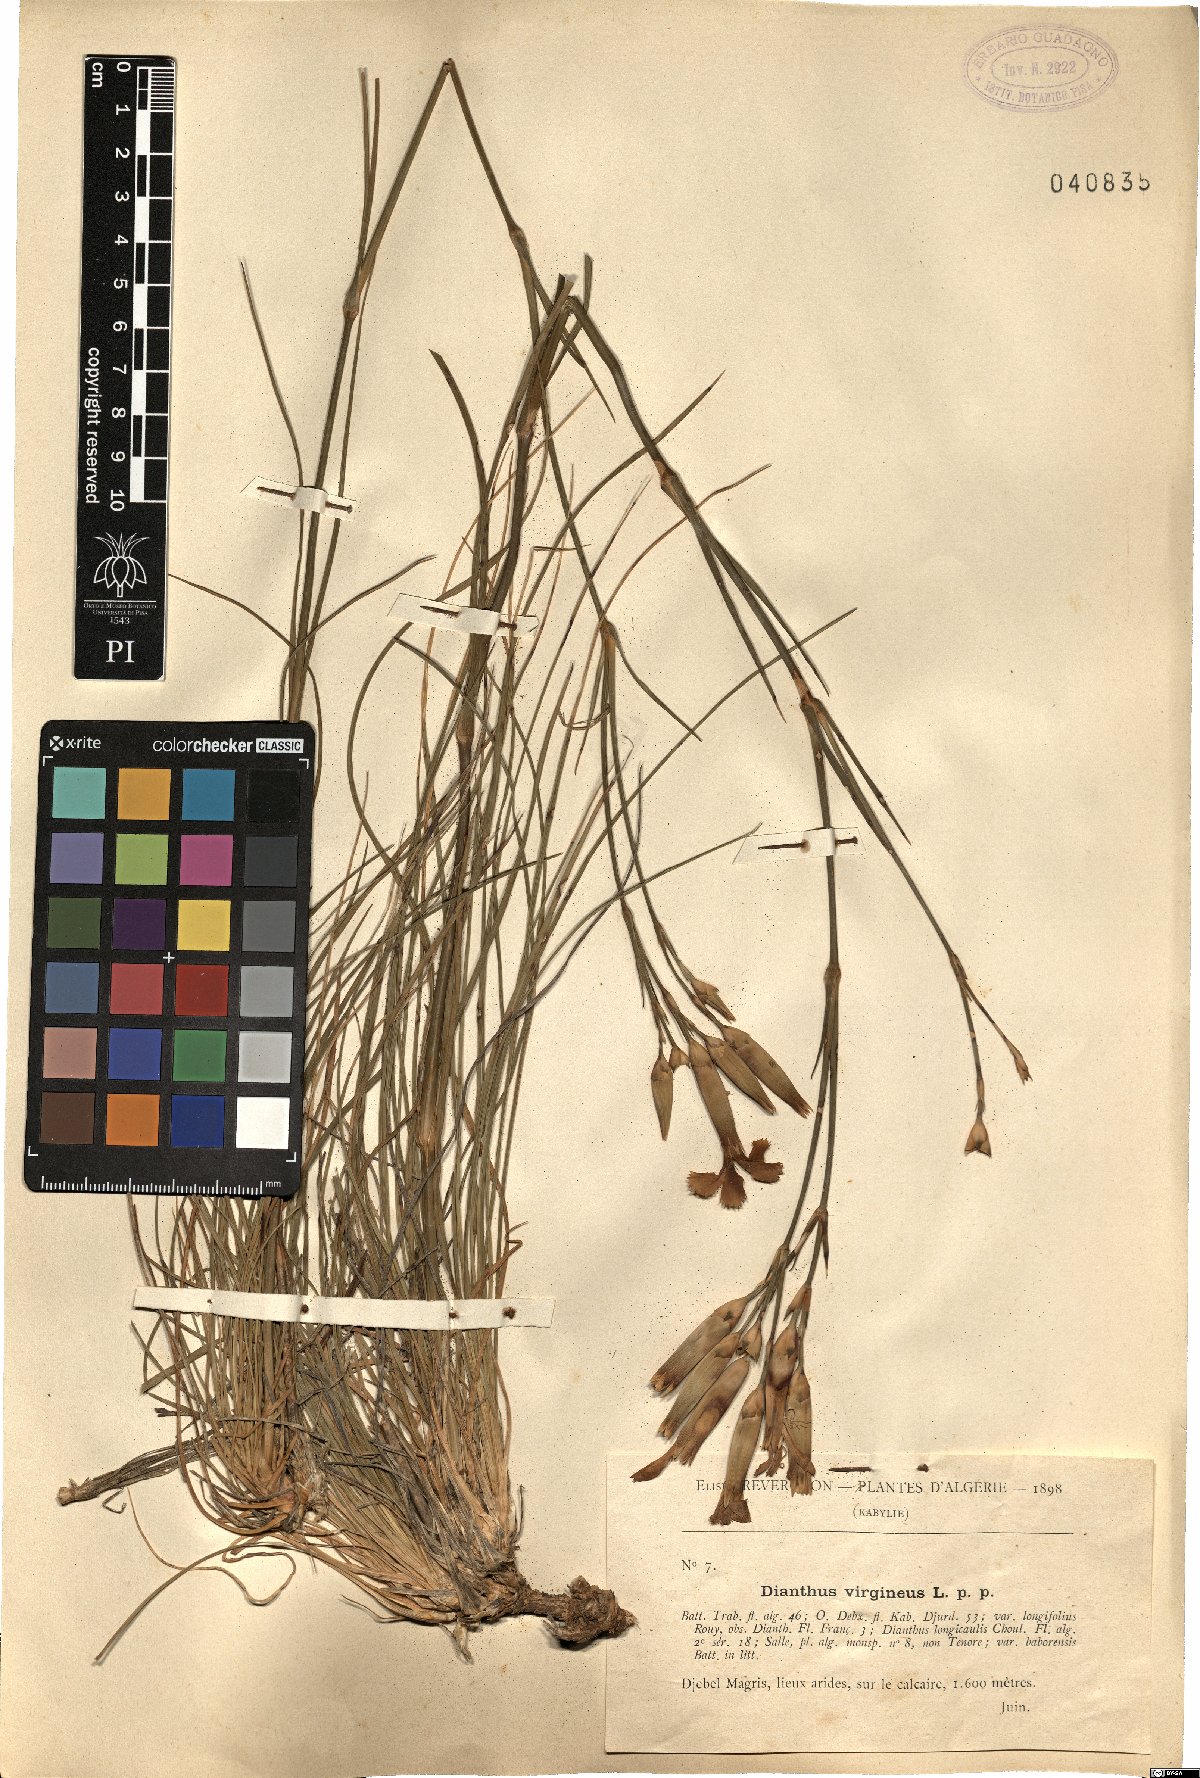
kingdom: Plantae
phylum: Tracheophyta
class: Magnoliopsida
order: Caryophyllales
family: Caryophyllaceae
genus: Dianthus
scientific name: Dianthus virgineus
